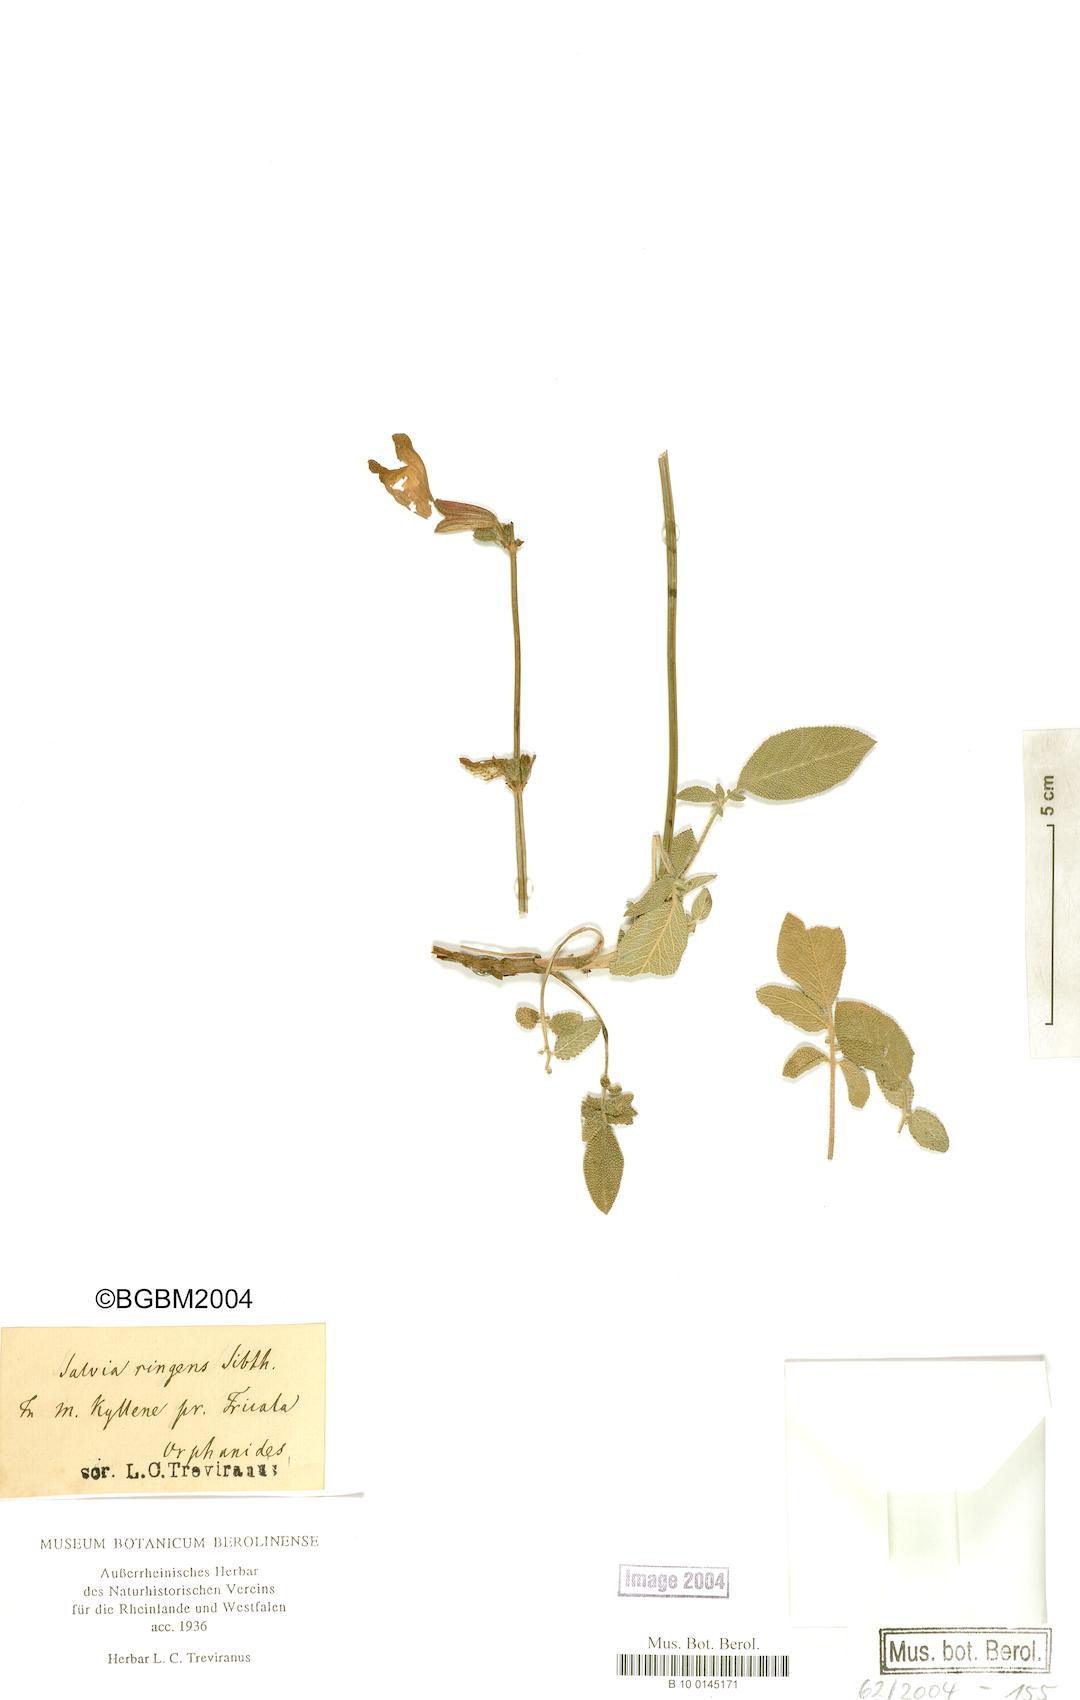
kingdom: Plantae
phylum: Tracheophyta
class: Magnoliopsida
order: Lamiales
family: Lamiaceae
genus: Salvia
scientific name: Salvia ringens
